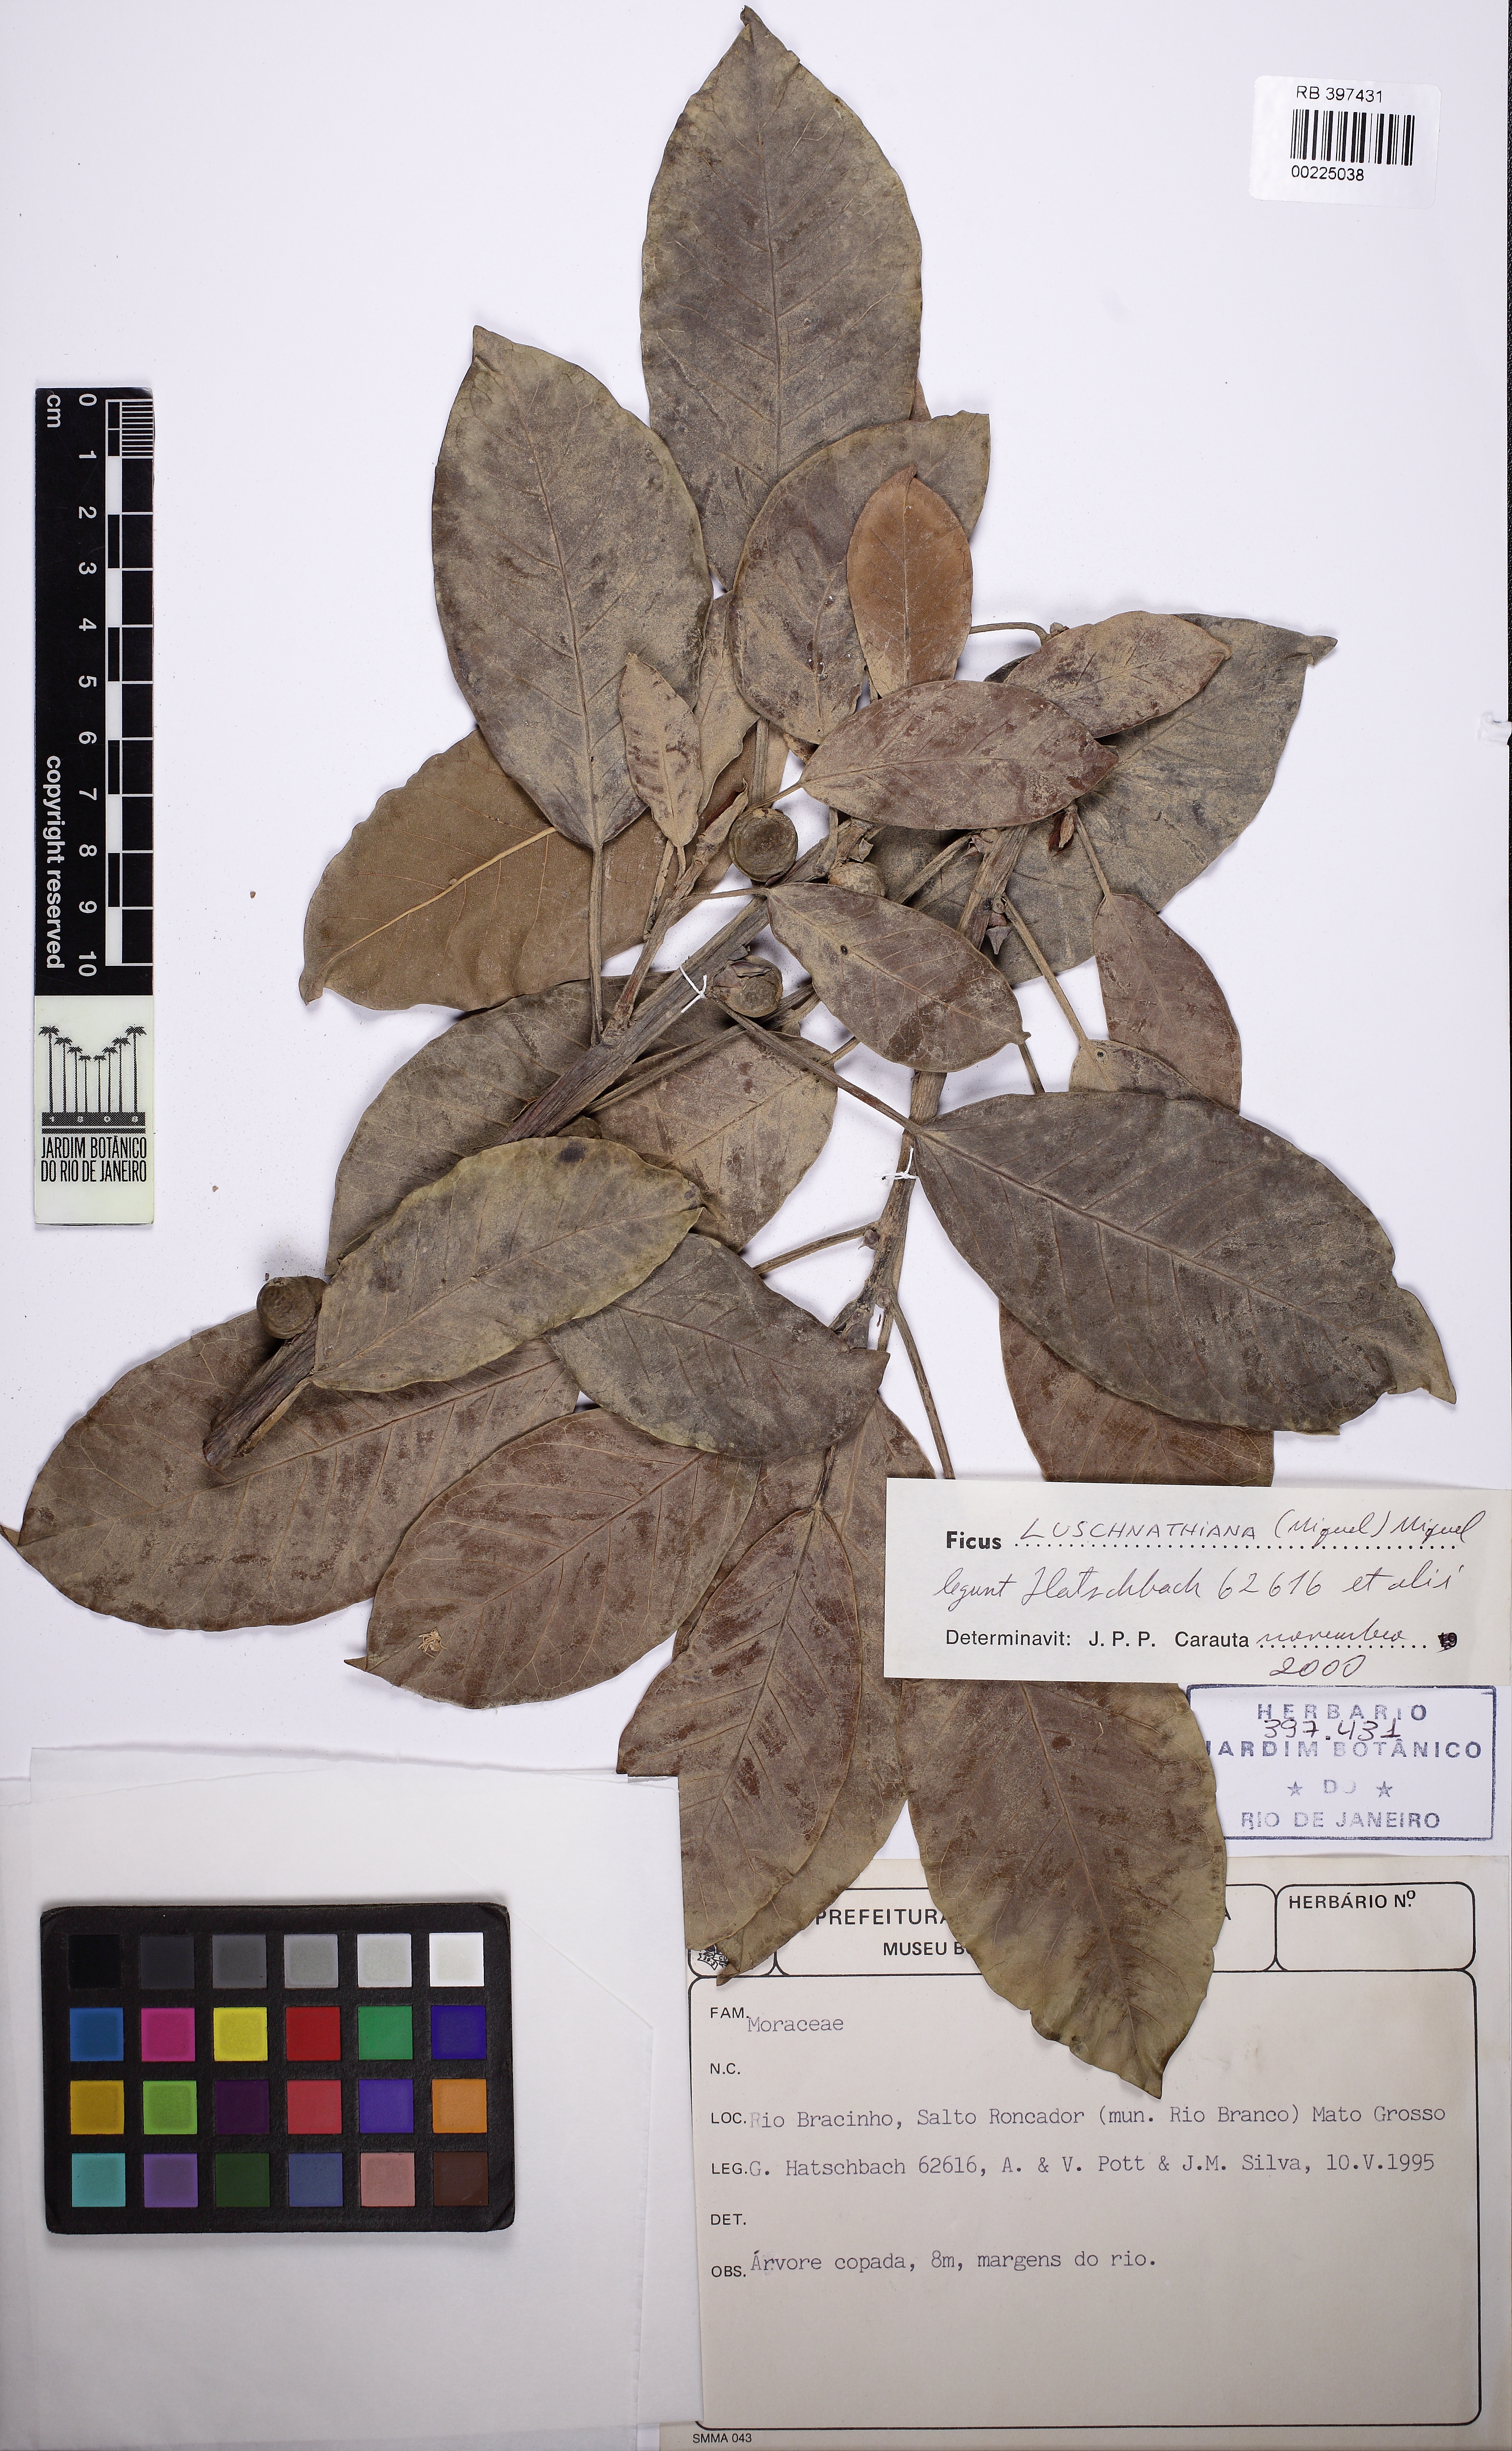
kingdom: Plantae
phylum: Tracheophyta
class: Magnoliopsida
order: Rosales
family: Moraceae
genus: Ficus
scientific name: Ficus luschnathiana
